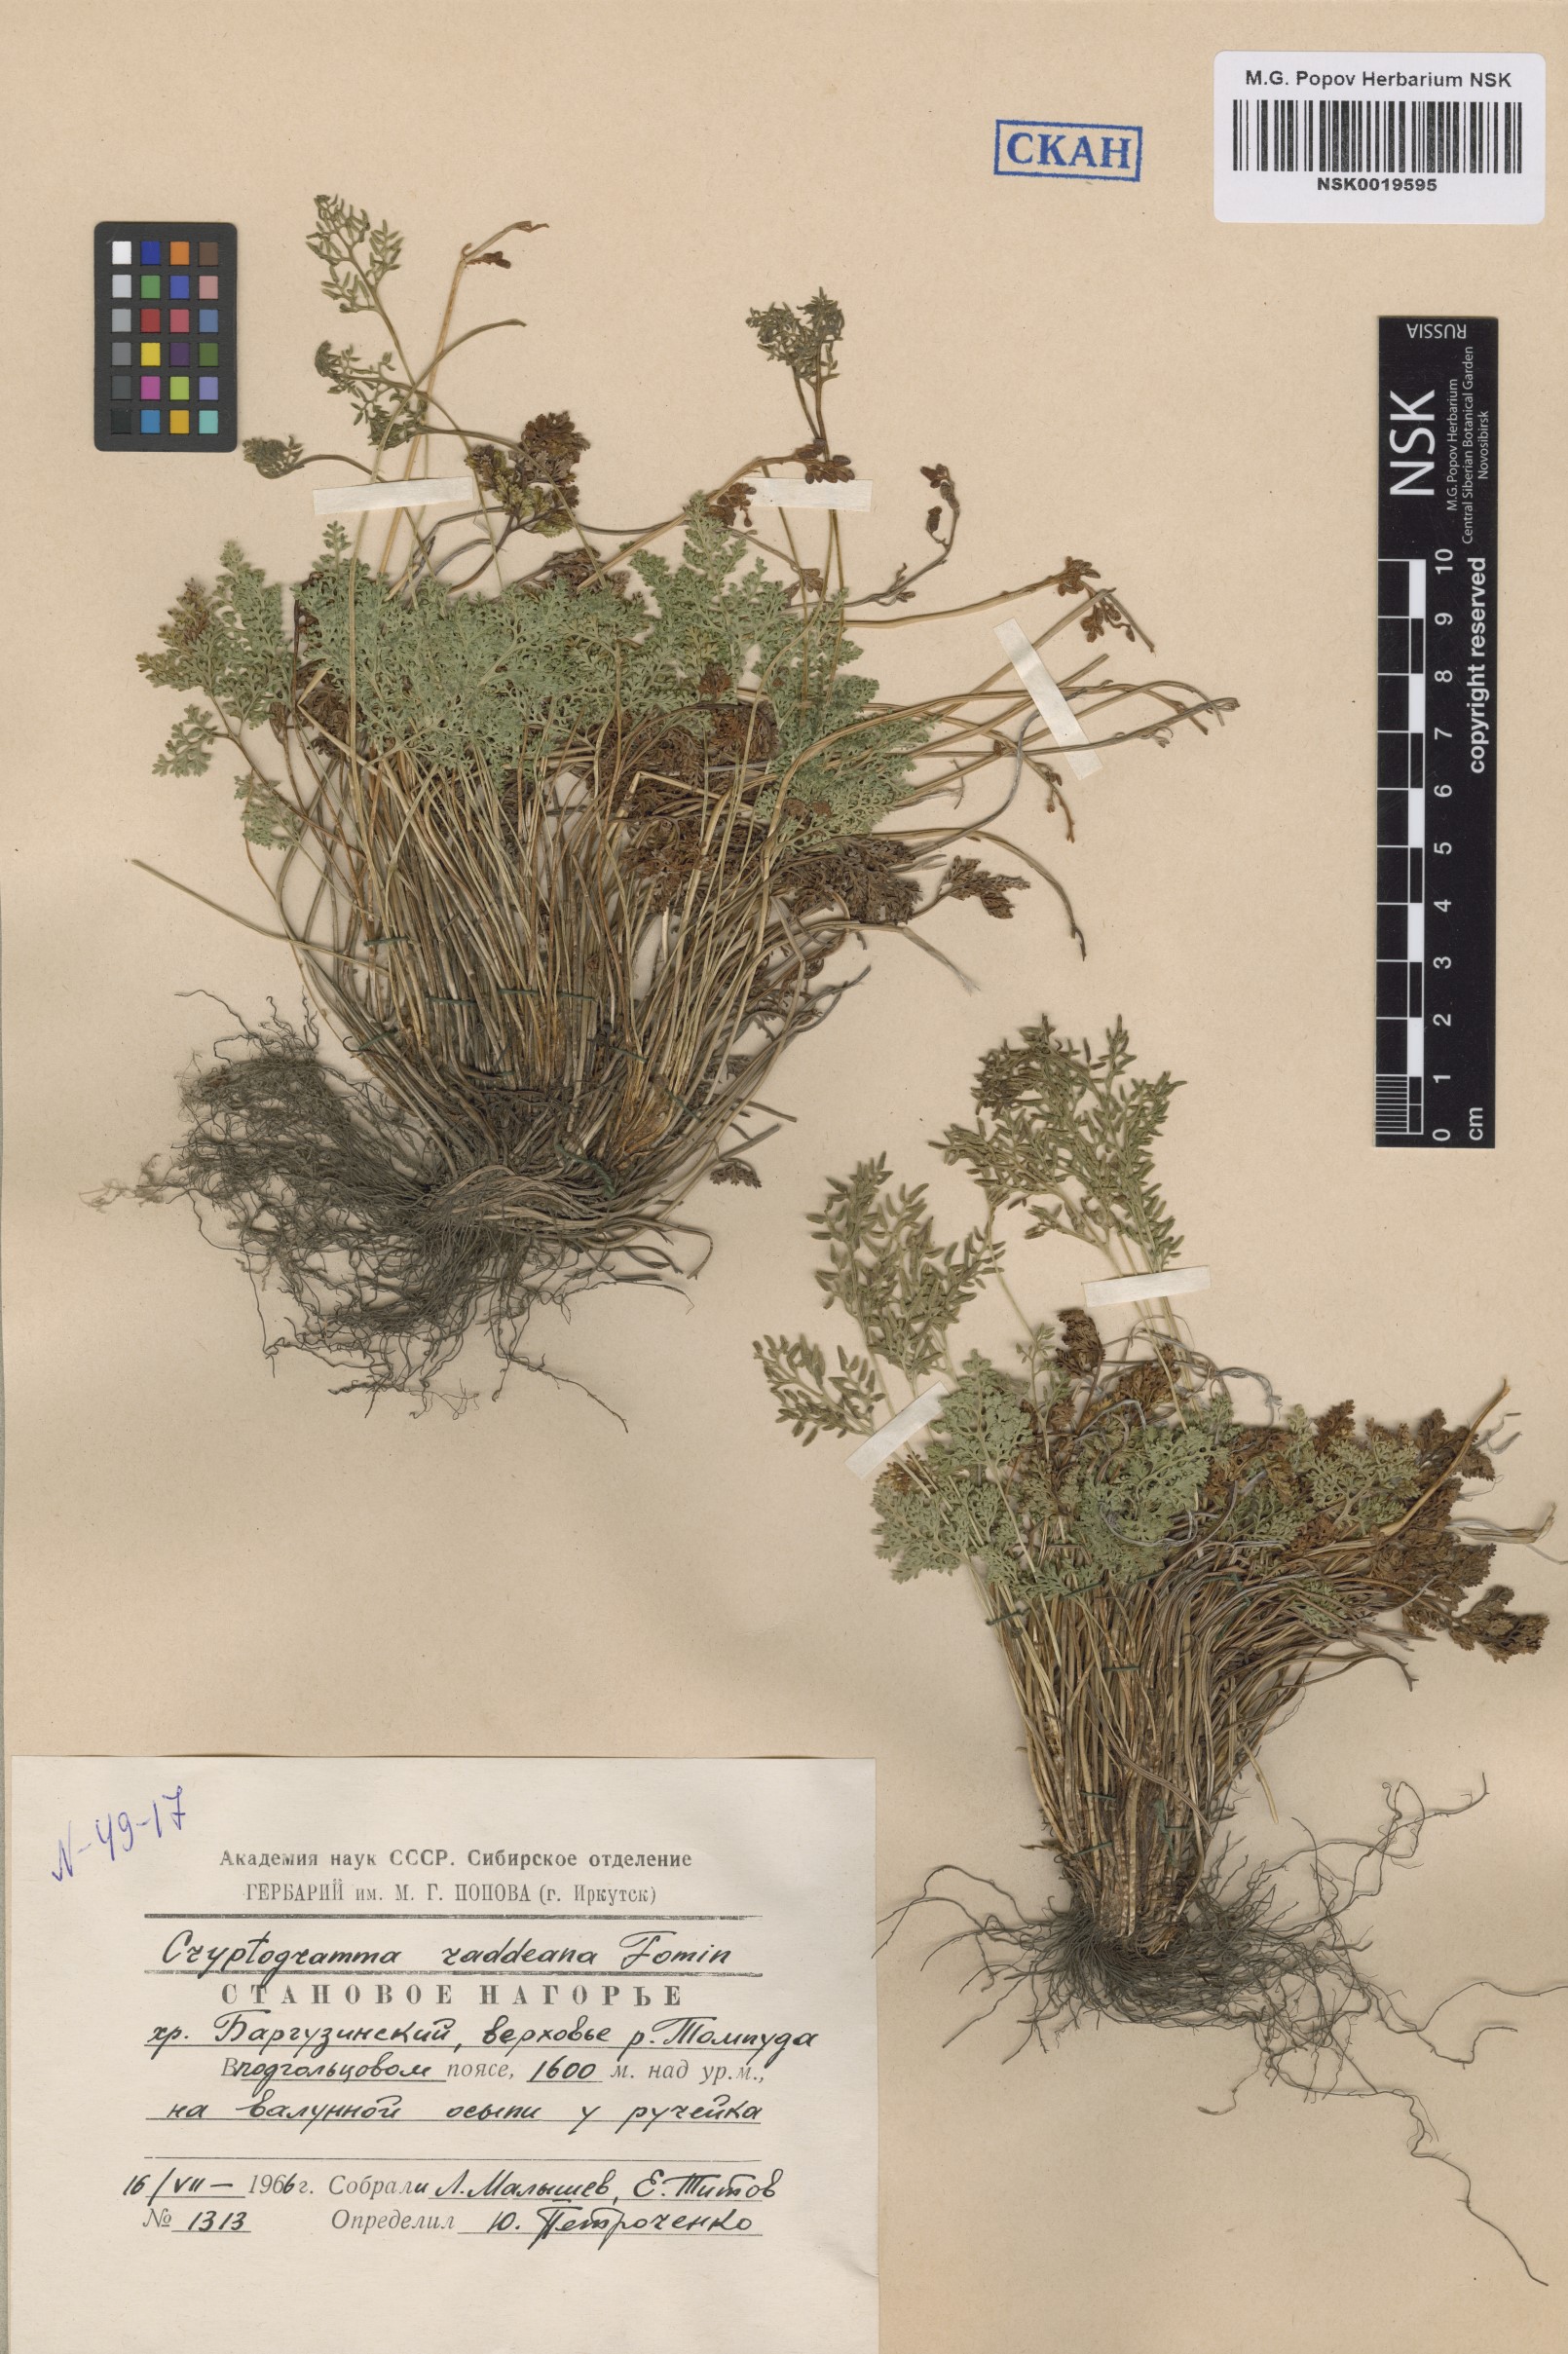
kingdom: Plantae
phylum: Tracheophyta
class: Polypodiopsida
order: Polypodiales
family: Pteridaceae
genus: Cryptogramma
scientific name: Cryptogramma brunoniana
